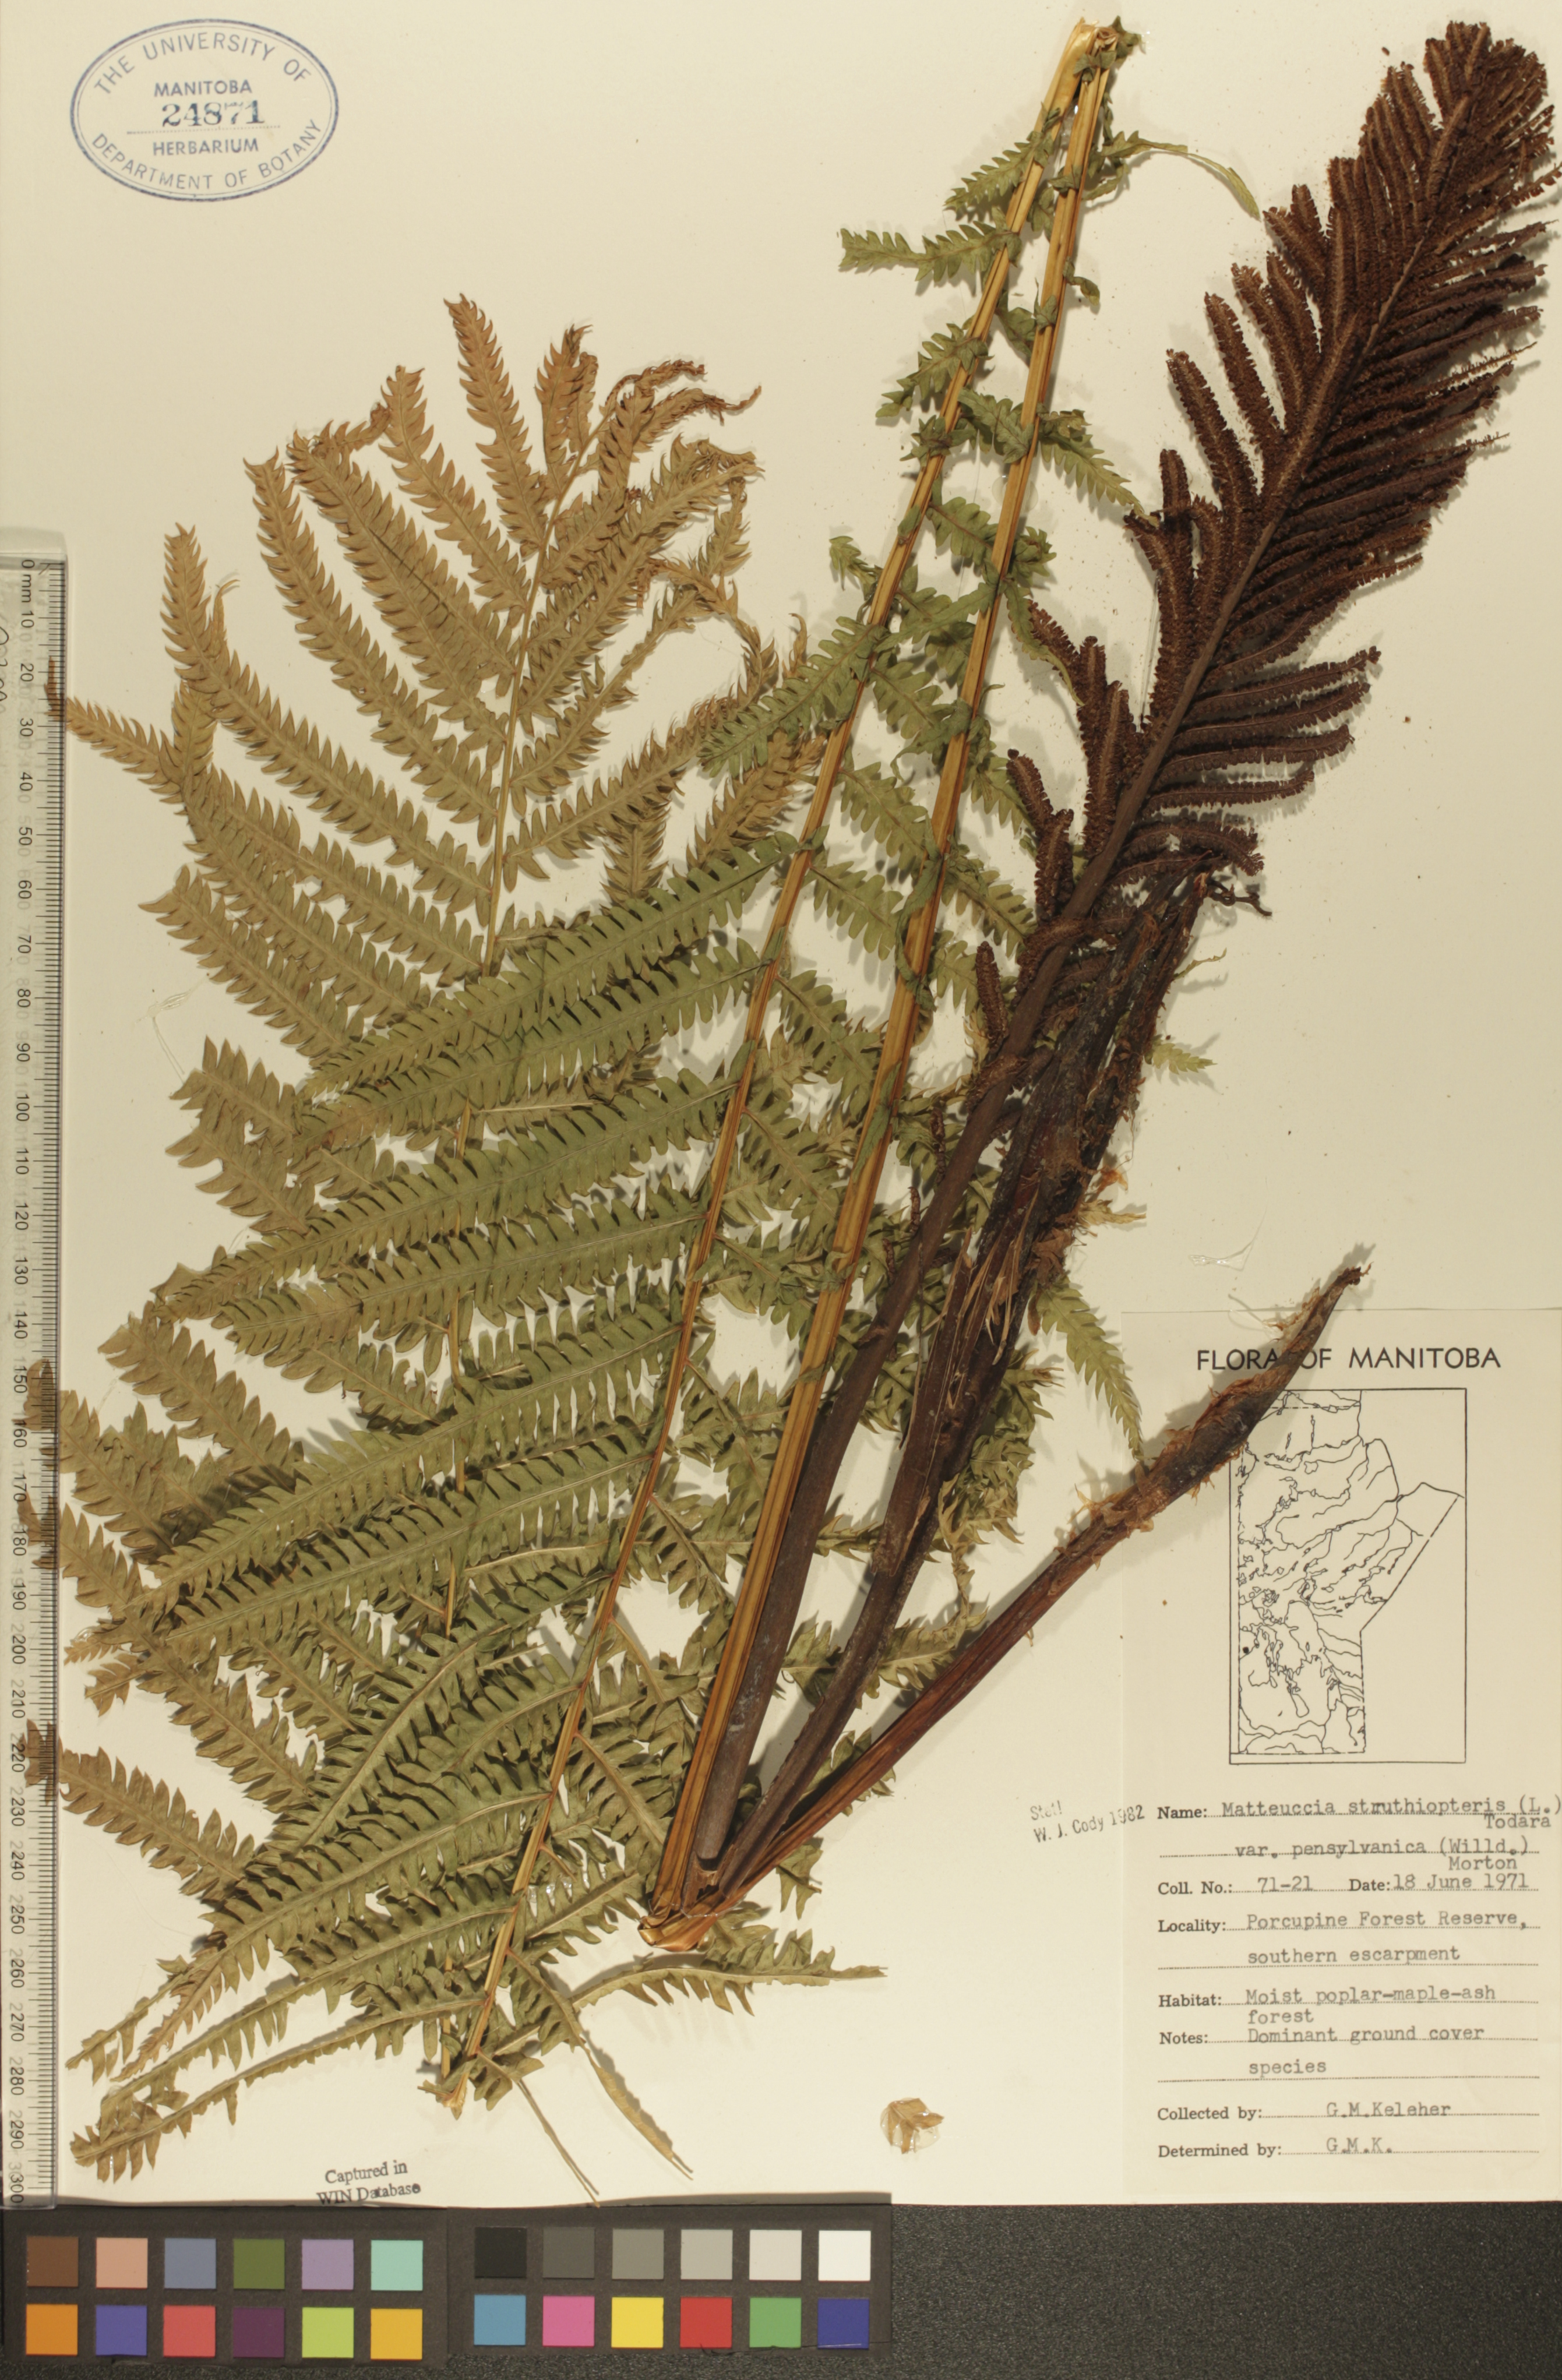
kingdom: Plantae
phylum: Tracheophyta
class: Polypodiopsida
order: Polypodiales
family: Onocleaceae
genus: Matteuccia
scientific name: Matteuccia pensylvanica
